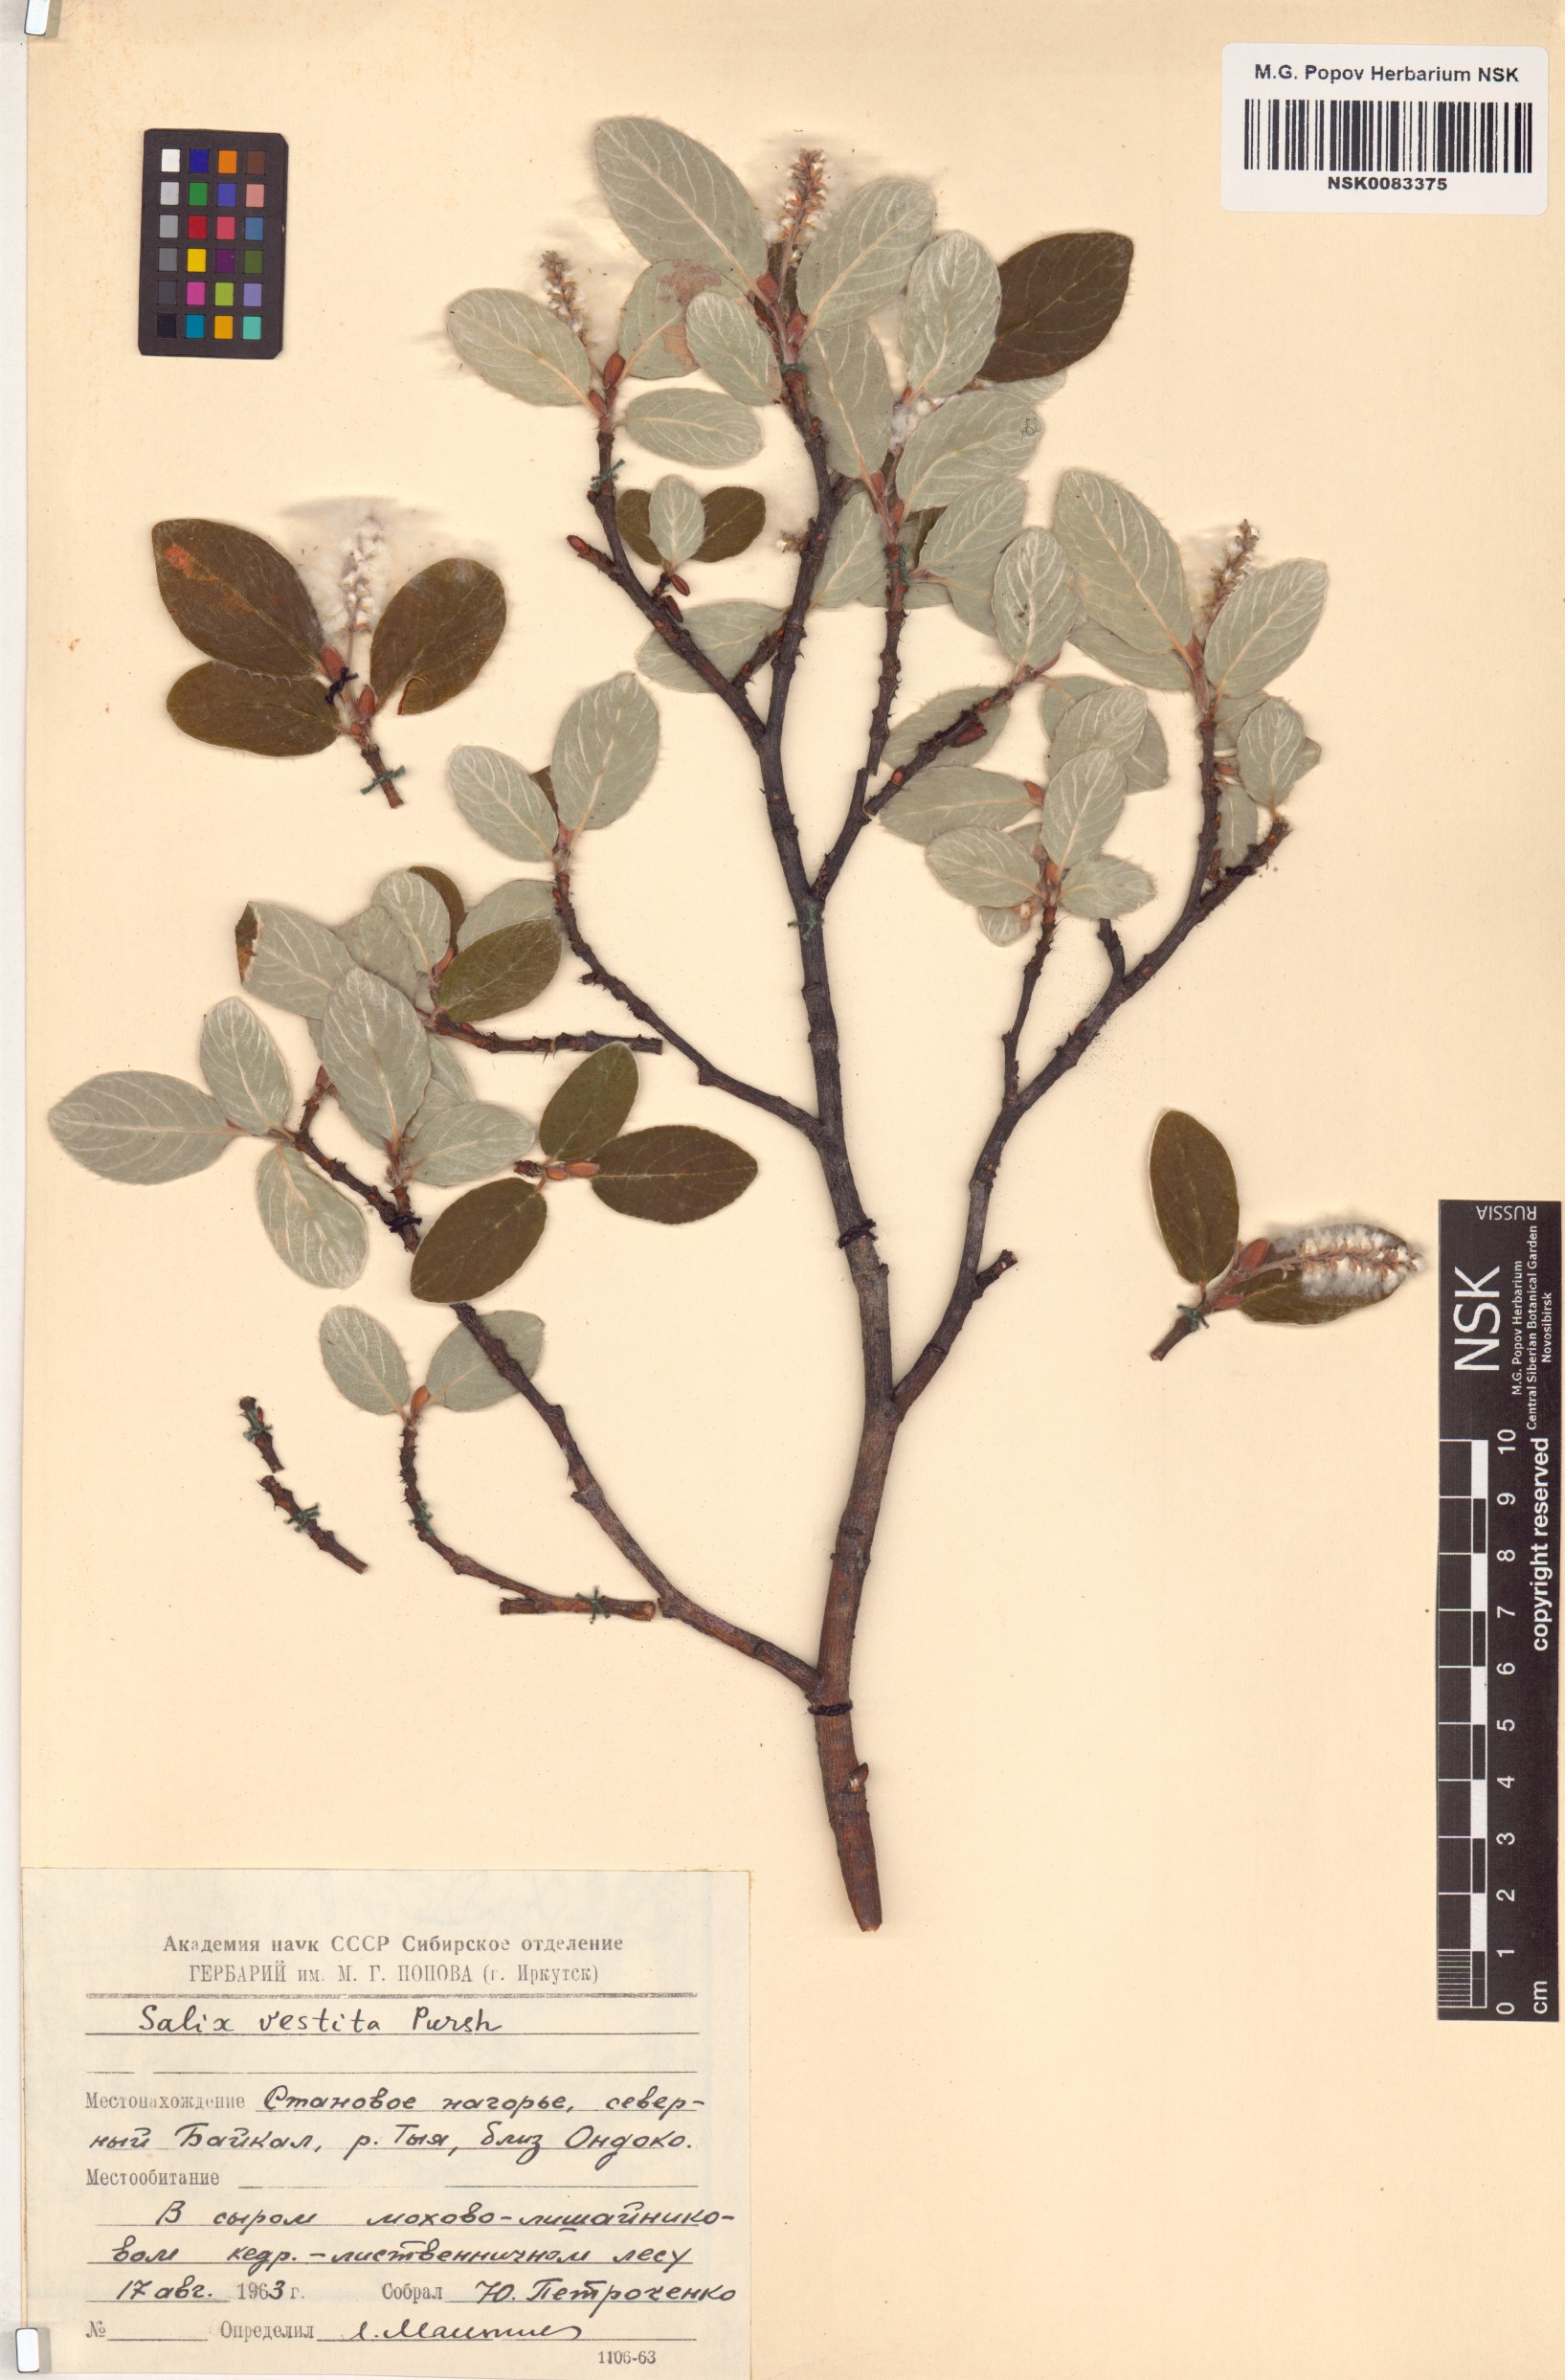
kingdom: Plantae
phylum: Tracheophyta
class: Magnoliopsida
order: Malpighiales
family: Salicaceae
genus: Salix
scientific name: Salix vestita
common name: Hairy willow
